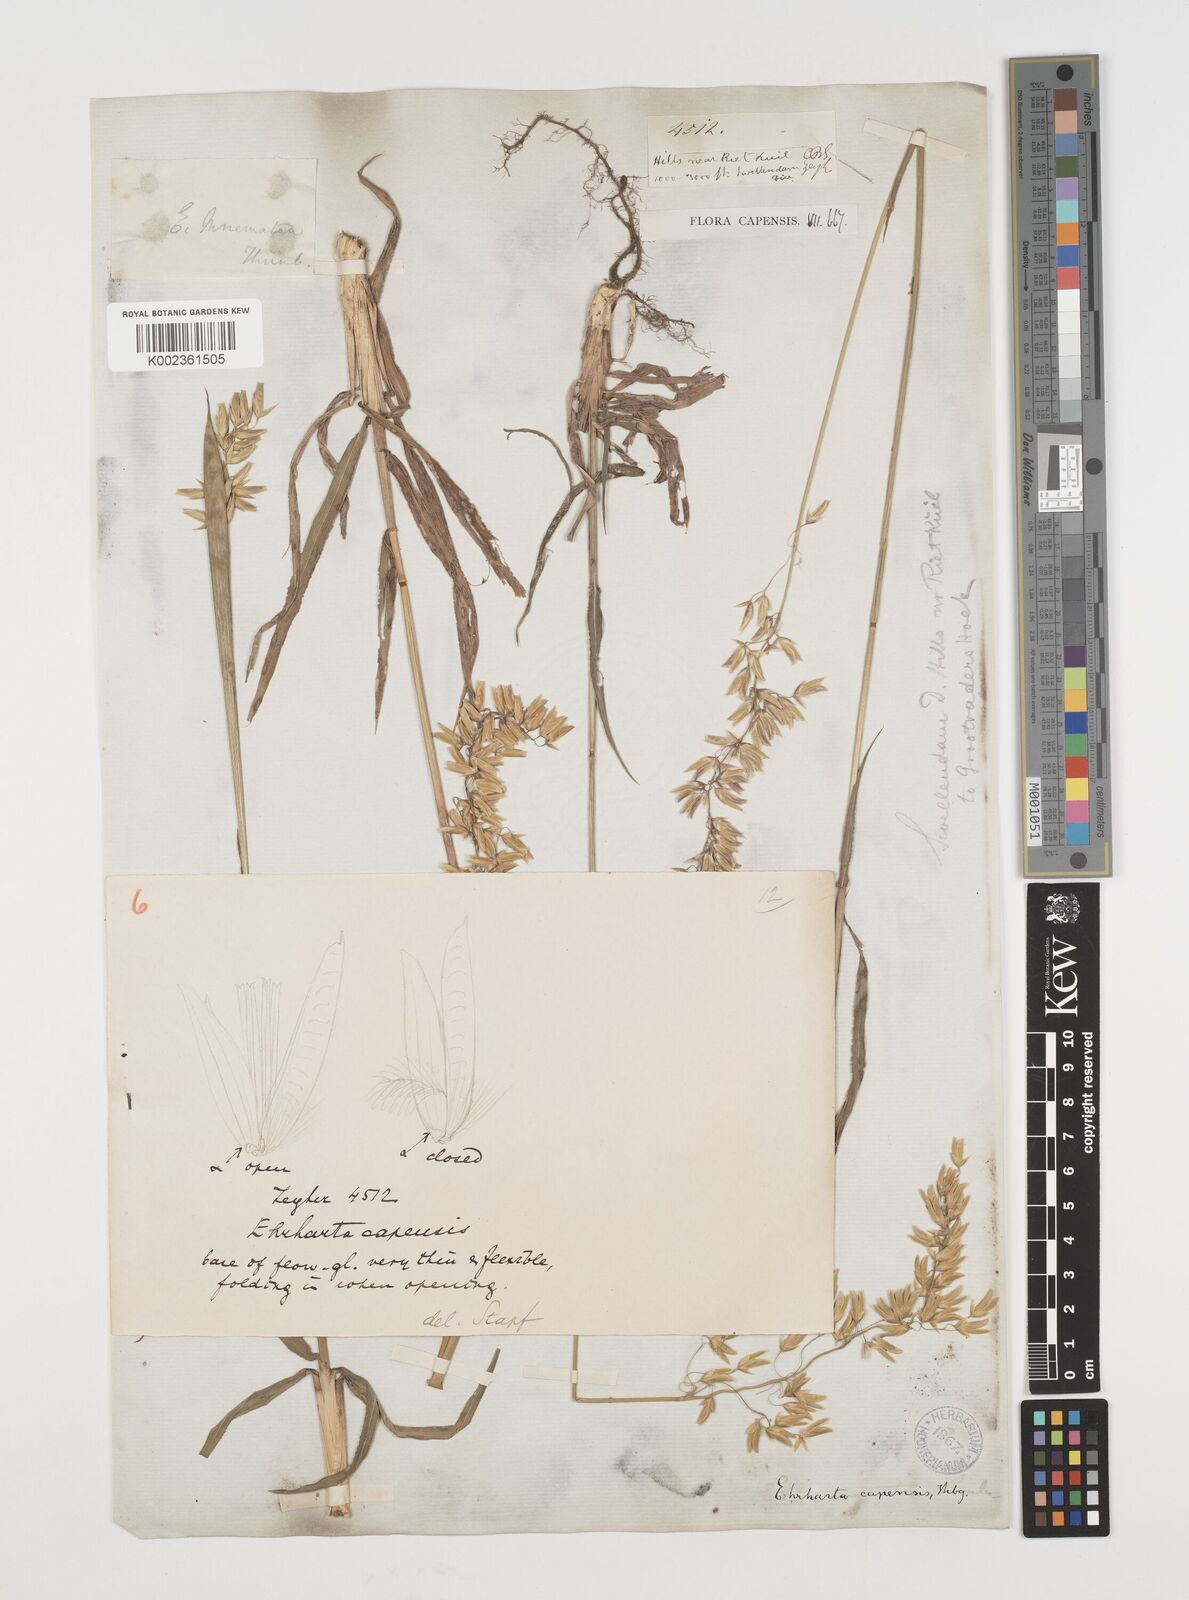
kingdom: Plantae
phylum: Tracheophyta
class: Liliopsida
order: Poales
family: Poaceae
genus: Ehrharta
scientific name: Ehrharta capensis
